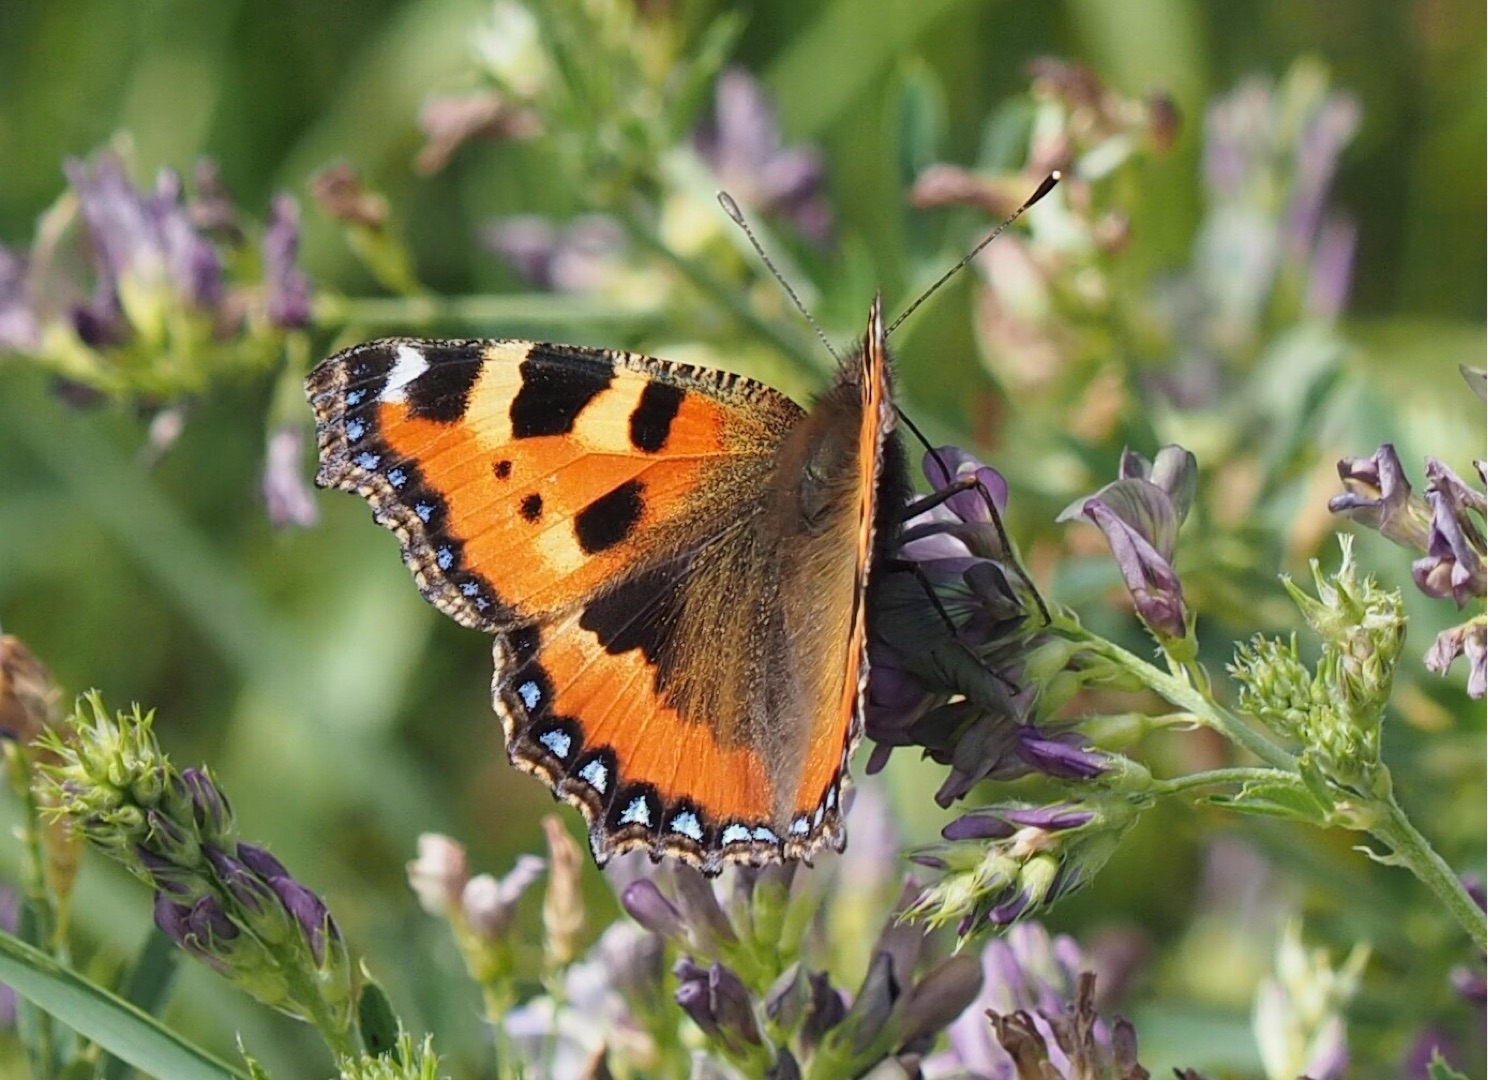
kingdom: Animalia
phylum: Arthropoda
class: Insecta
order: Lepidoptera
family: Nymphalidae
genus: Aglais
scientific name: Aglais urticae
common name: Nældens takvinge
